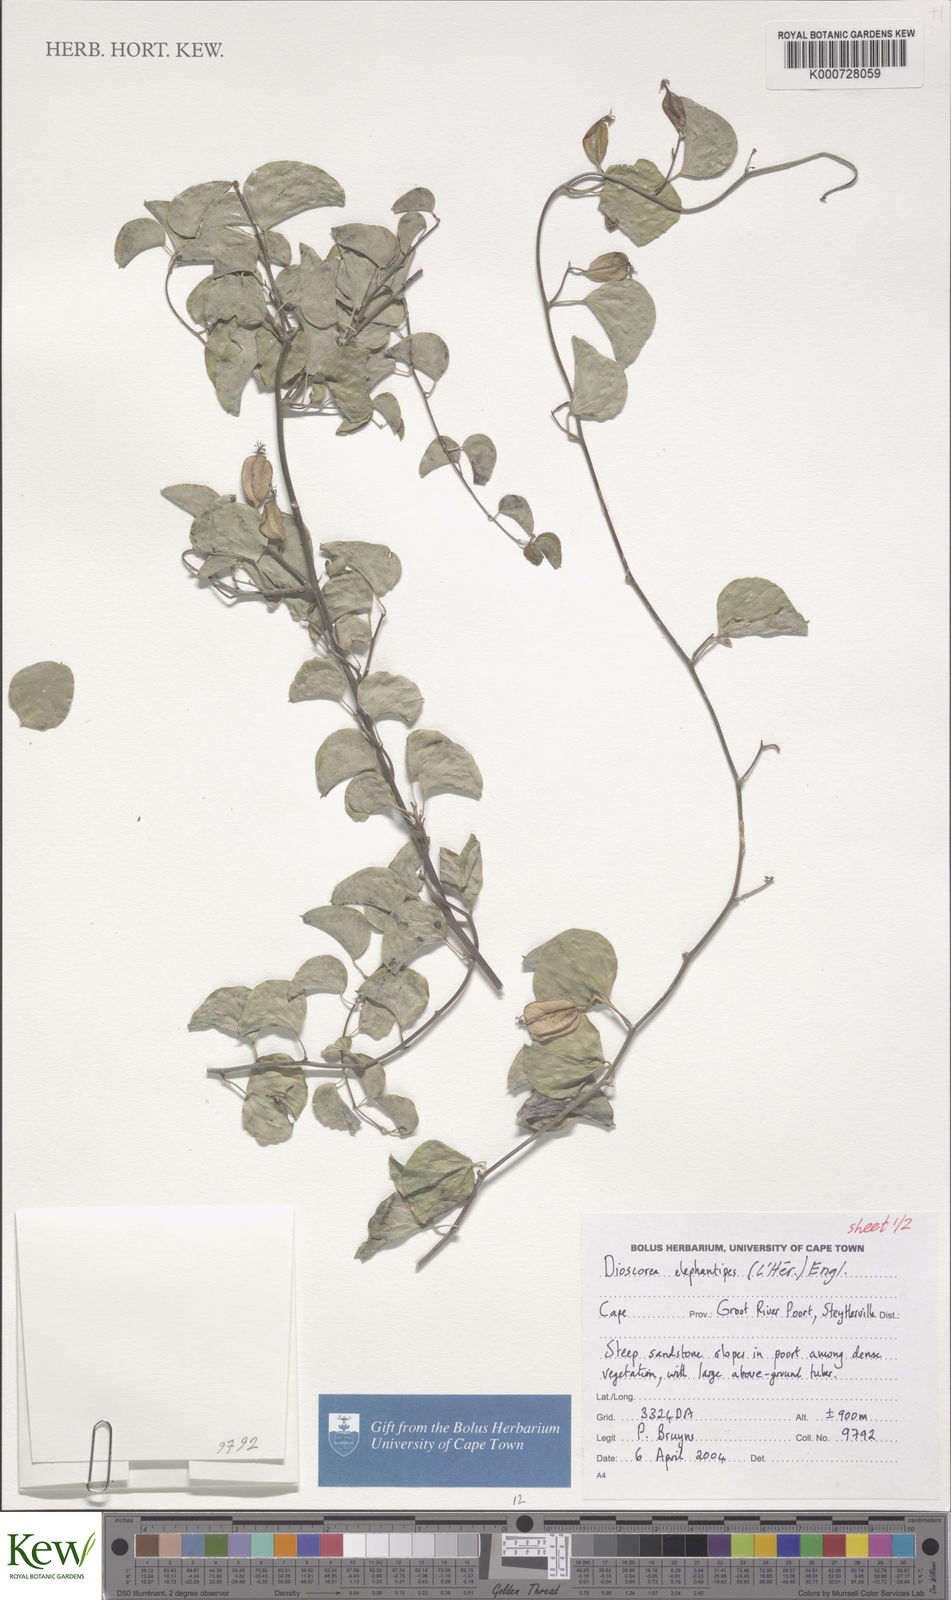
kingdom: Plantae
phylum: Tracheophyta
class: Liliopsida
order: Dioscoreales
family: Dioscoreaceae
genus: Dioscorea
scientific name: Dioscorea
